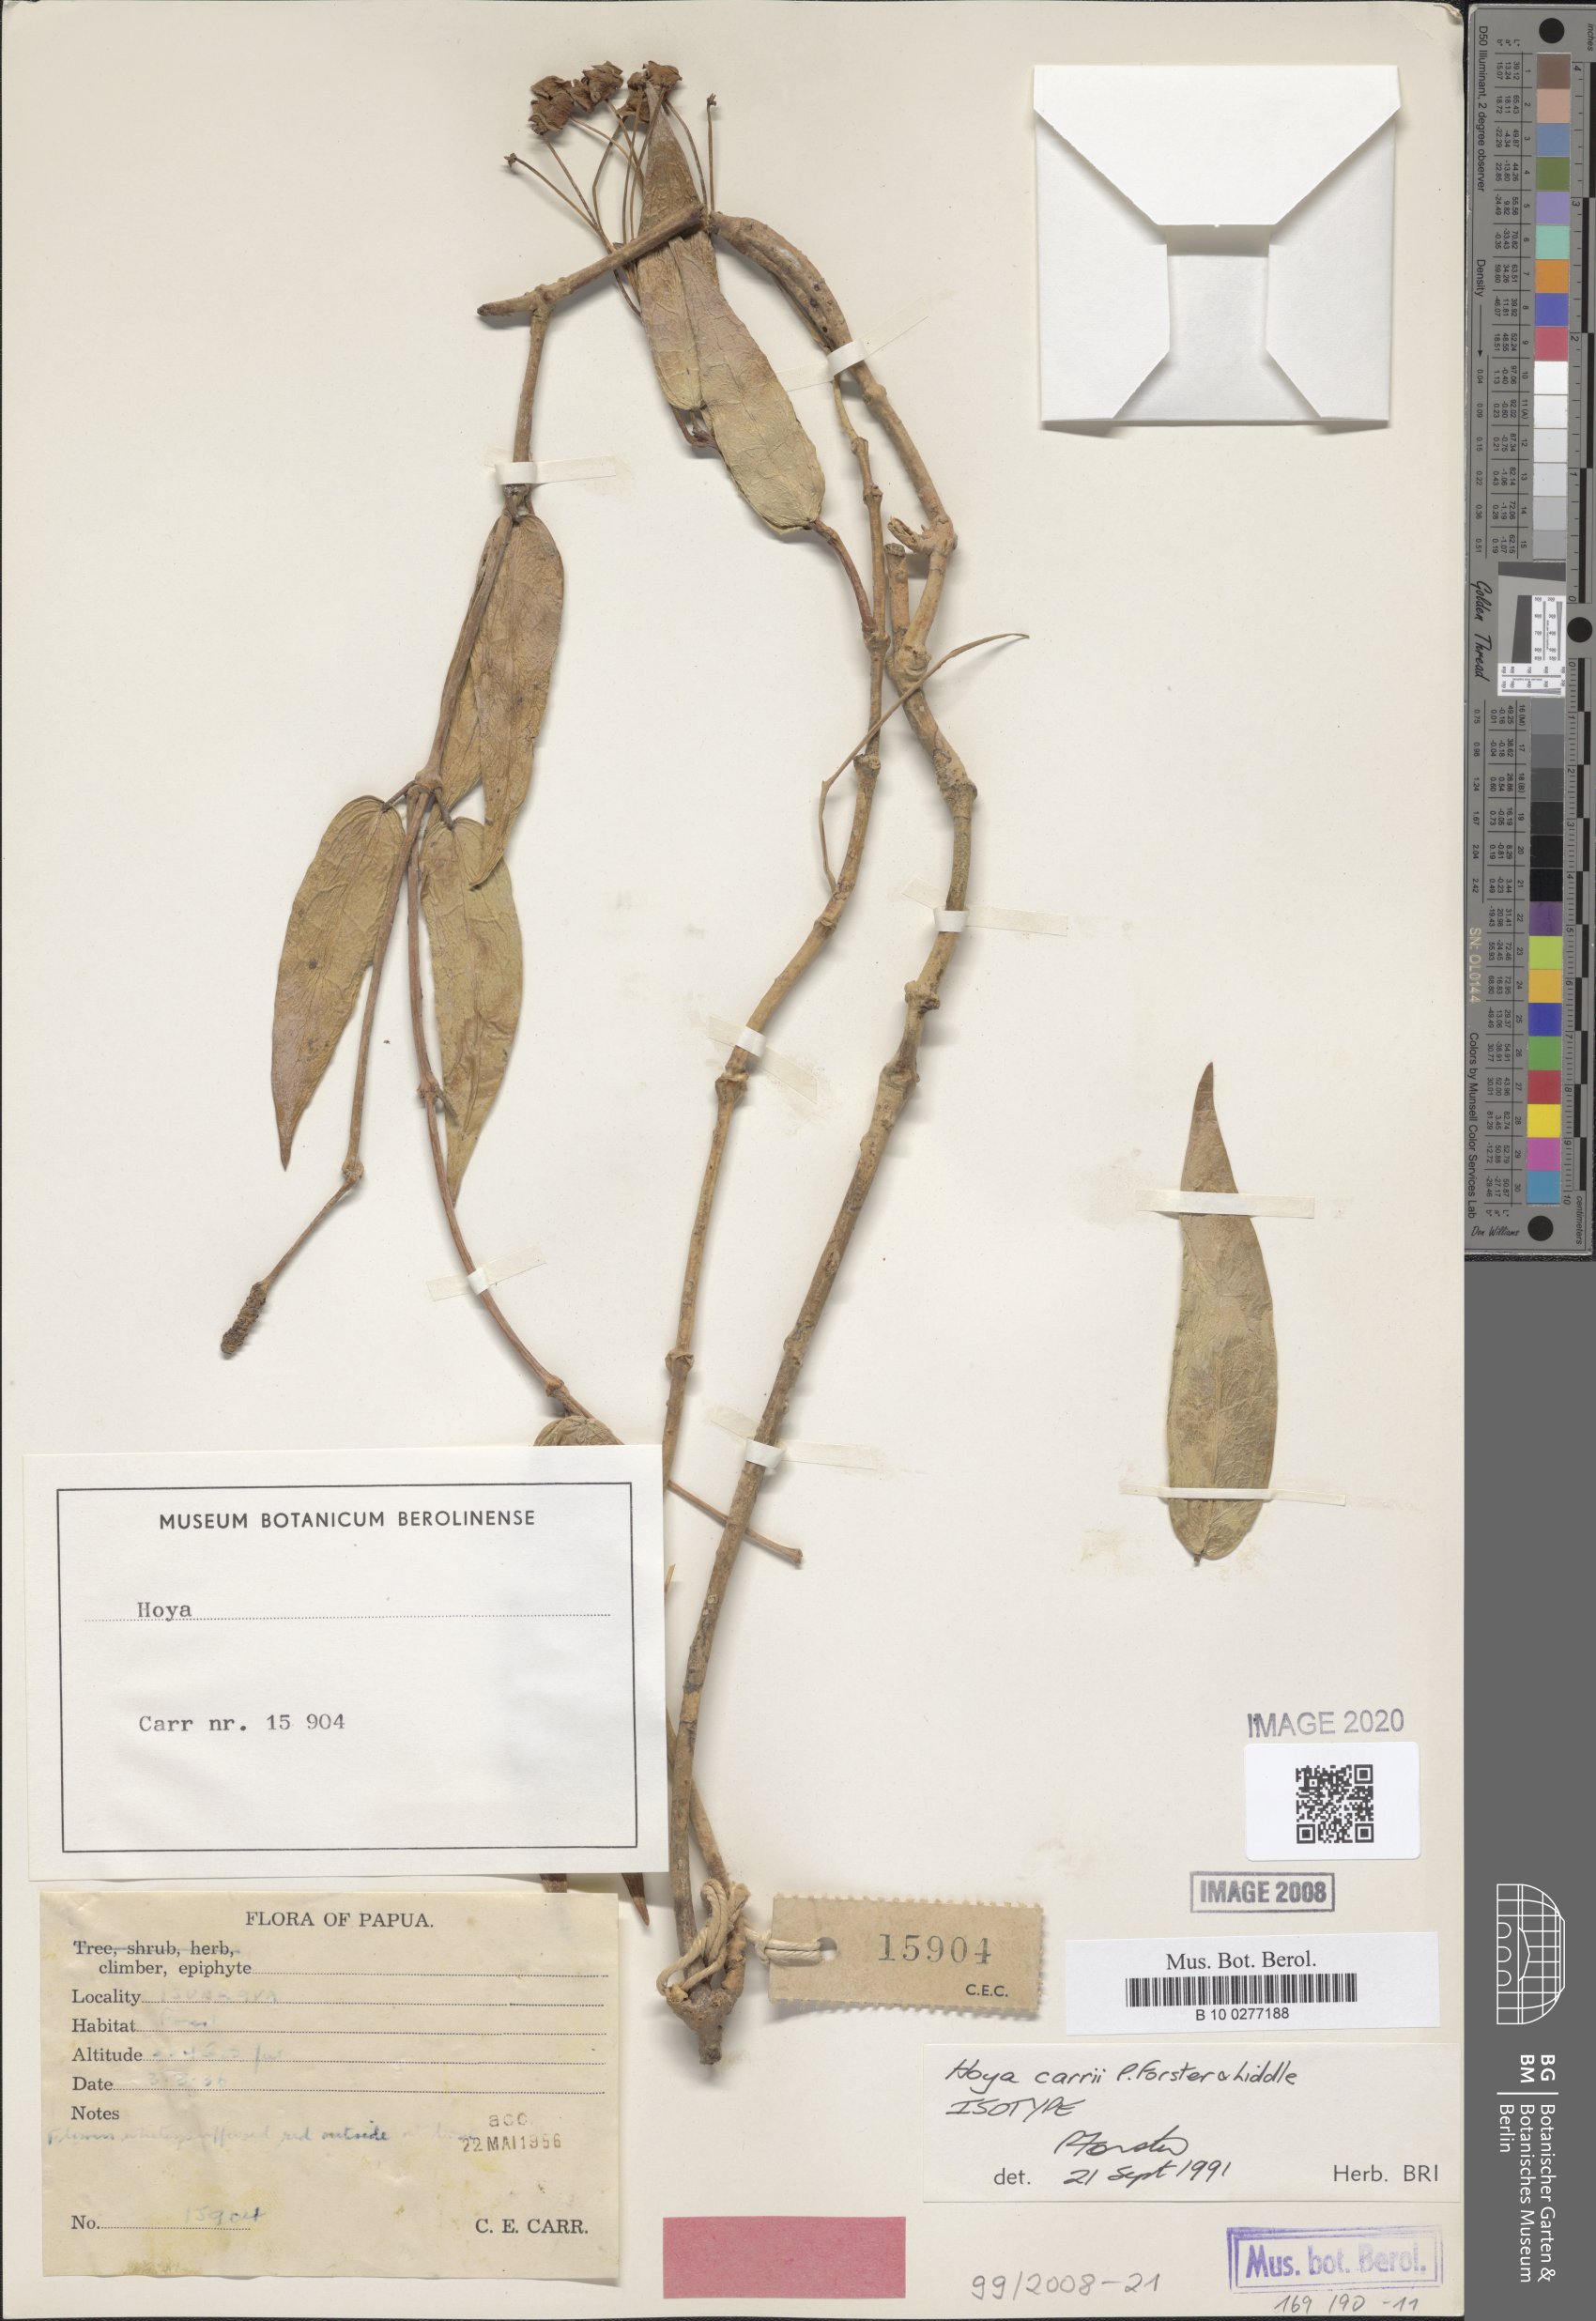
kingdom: Plantae
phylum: Tracheophyta
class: Magnoliopsida
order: Gentianales
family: Apocynaceae
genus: Hoya
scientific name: Hoya carrii
